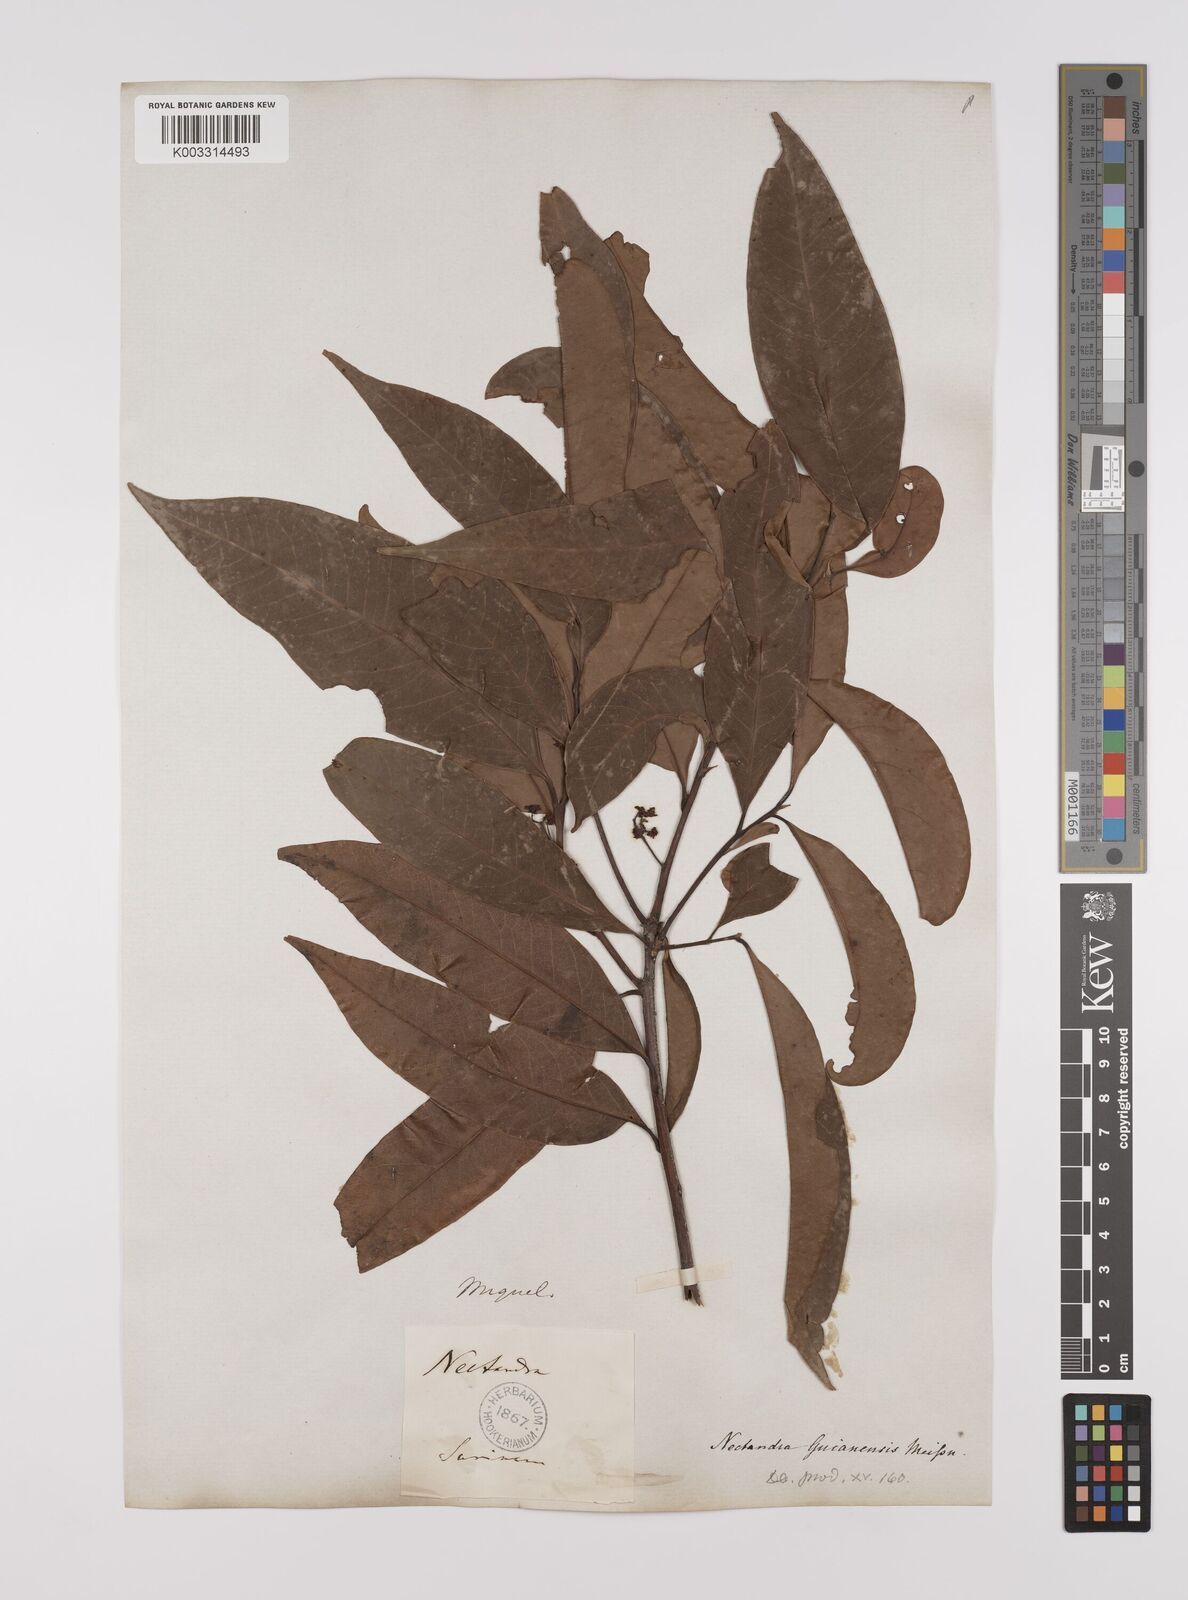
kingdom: Plantae
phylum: Tracheophyta
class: Magnoliopsida
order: Laurales
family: Lauraceae
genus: Nectandra
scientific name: Nectandra sanguinea
